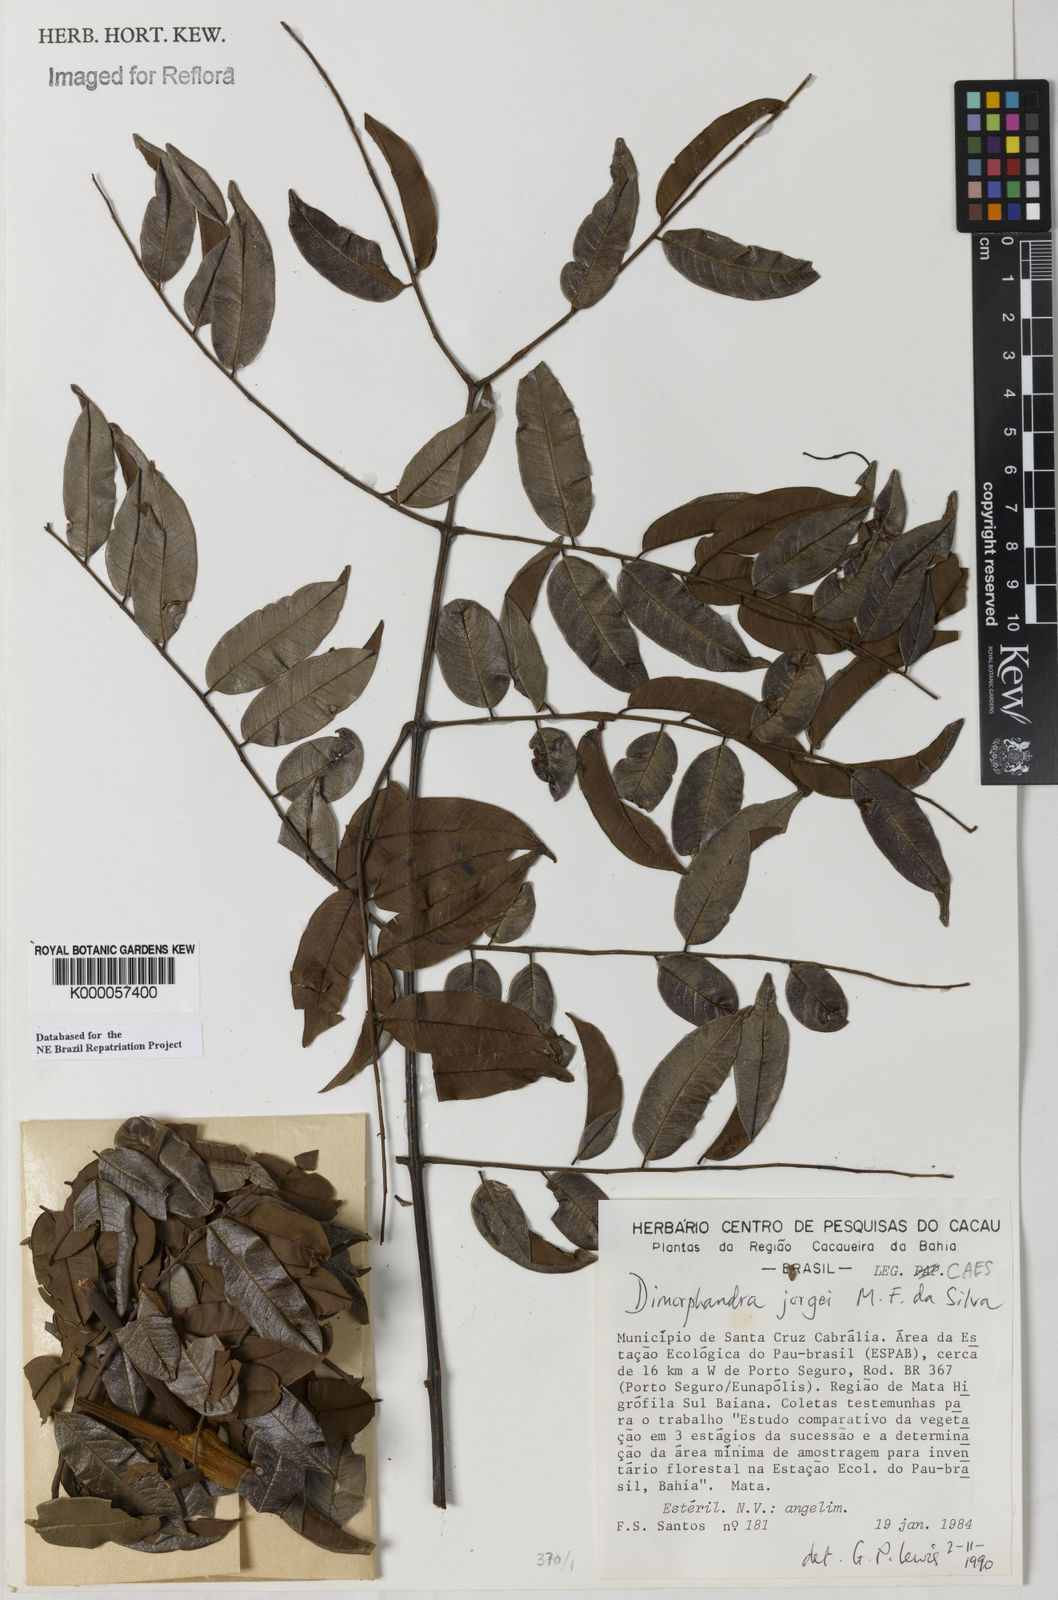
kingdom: Plantae
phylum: Tracheophyta
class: Magnoliopsida
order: Fabales
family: Fabaceae
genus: Dimorphandra
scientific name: Dimorphandra jorgei
